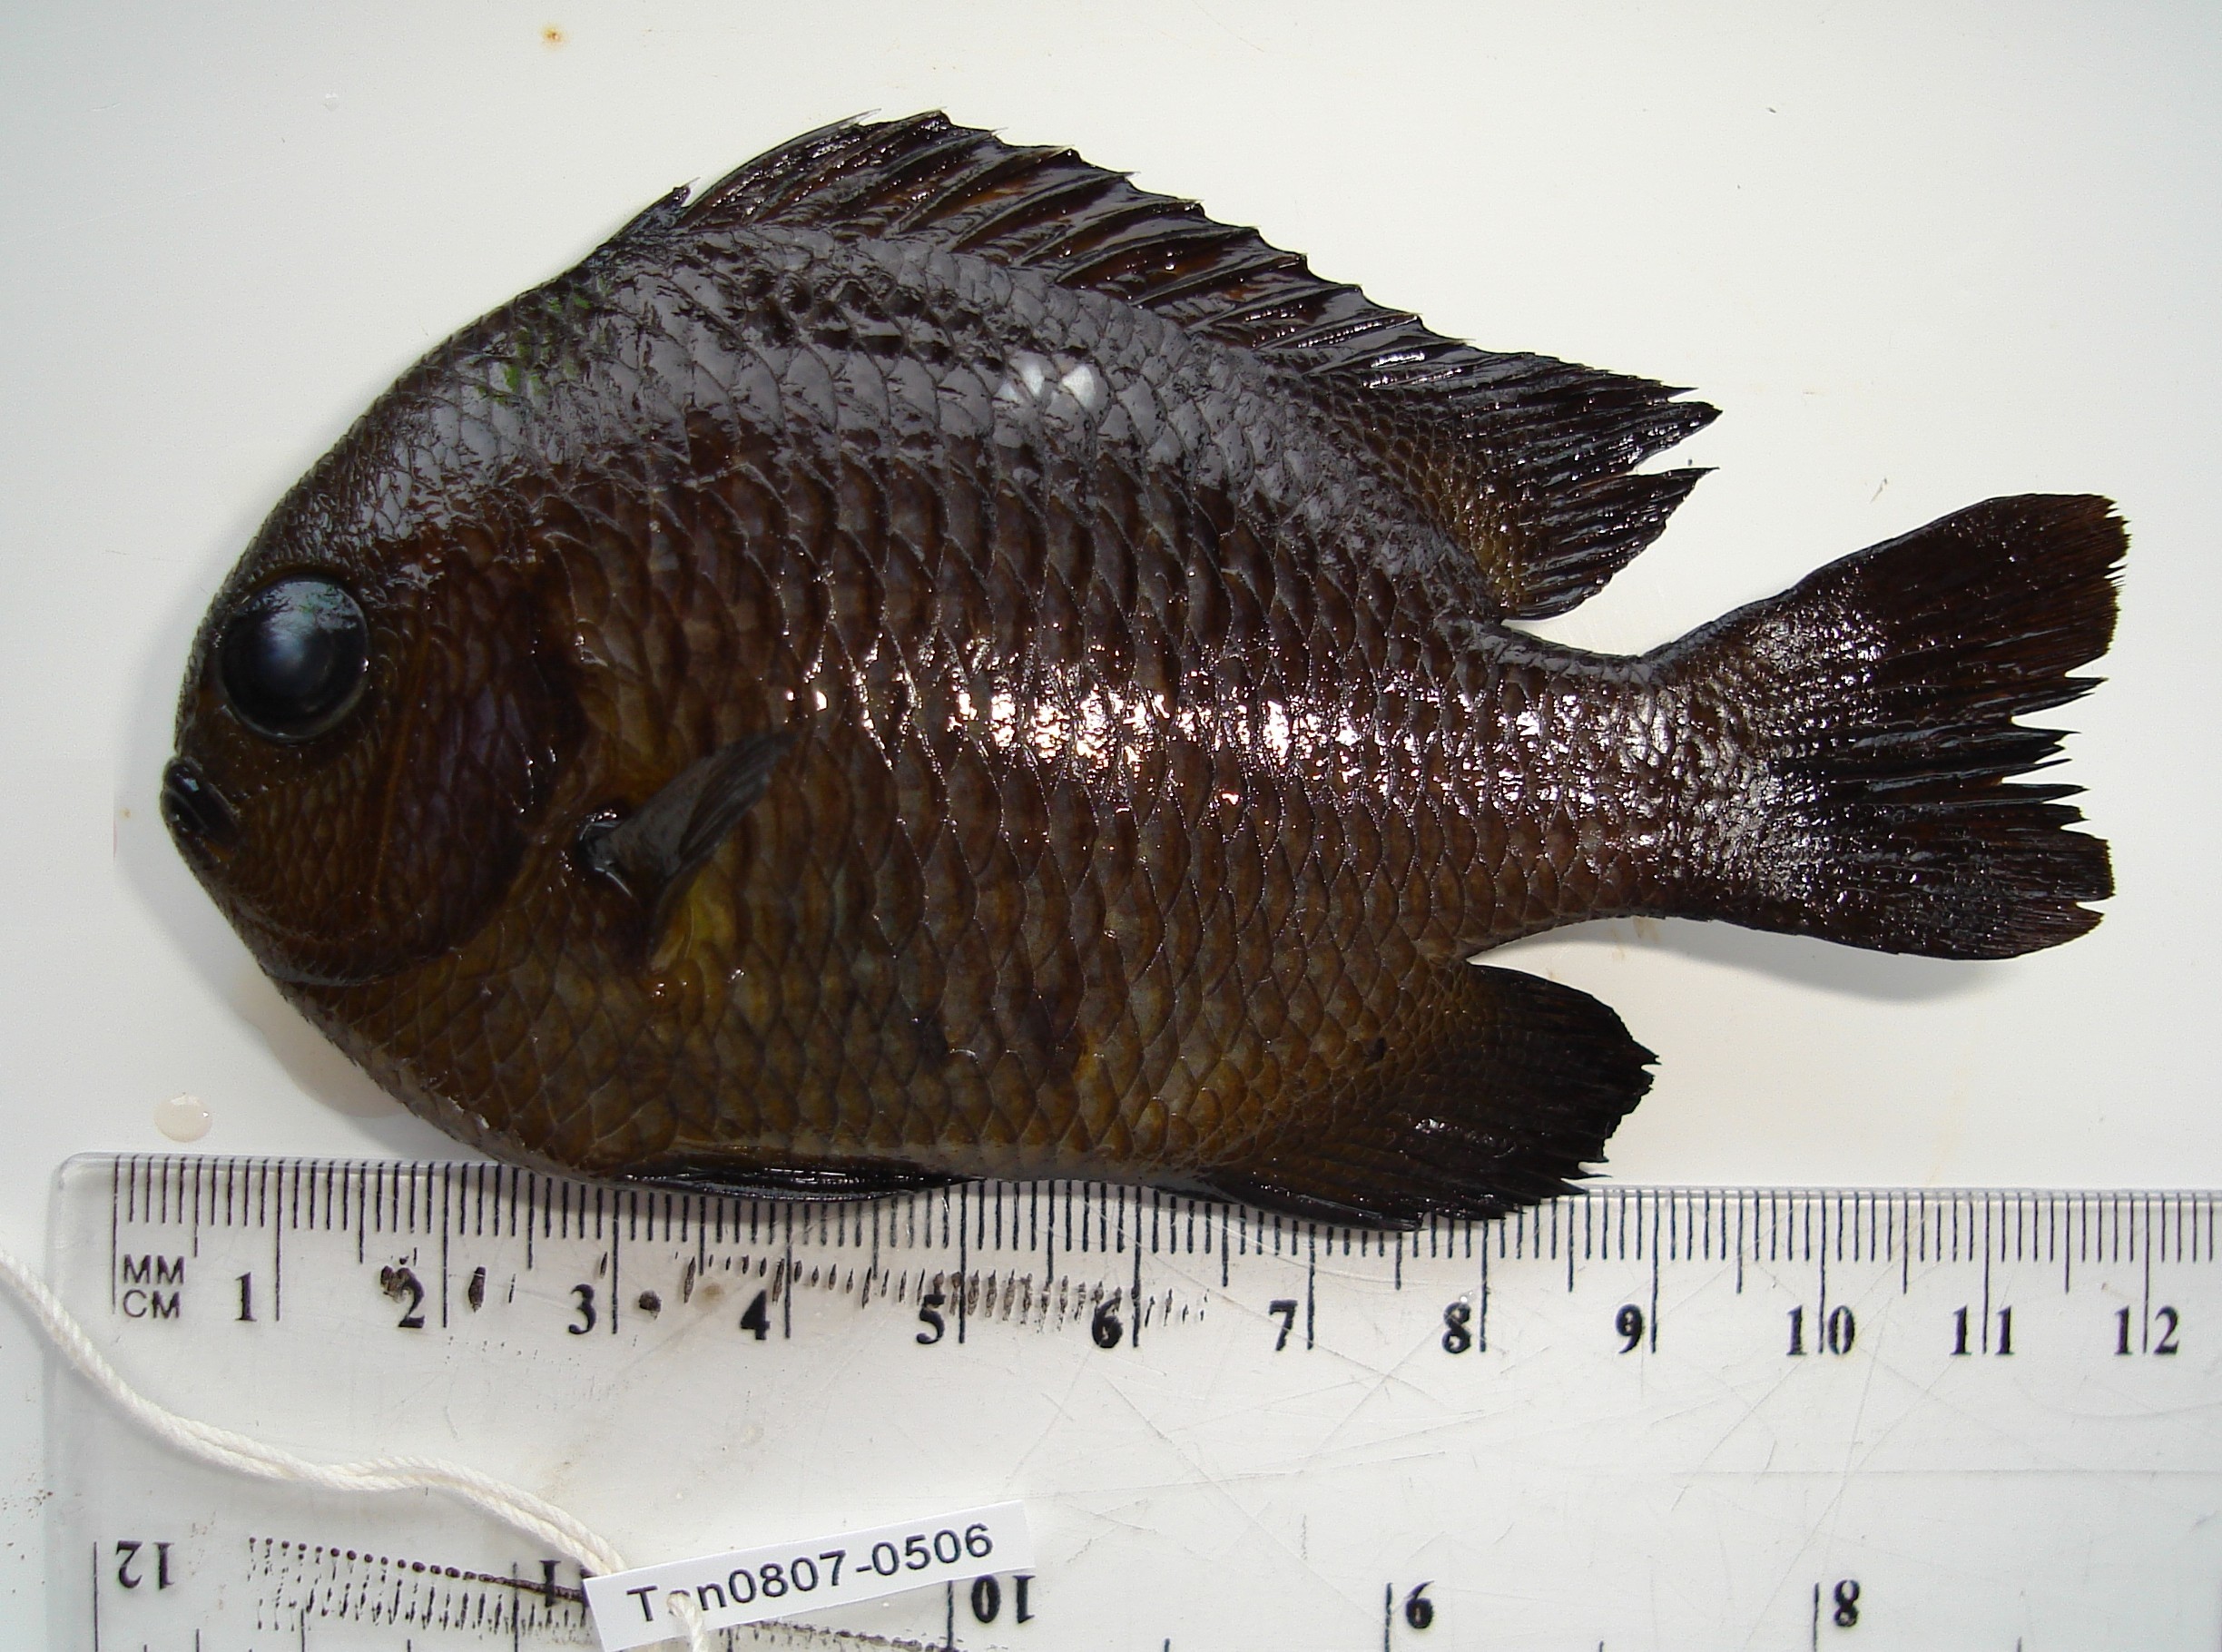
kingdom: Animalia
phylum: Chordata
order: Perciformes
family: Pomacentridae
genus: Dascyllus
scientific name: Dascyllus trimaculatus
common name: Threespot dascyllus
